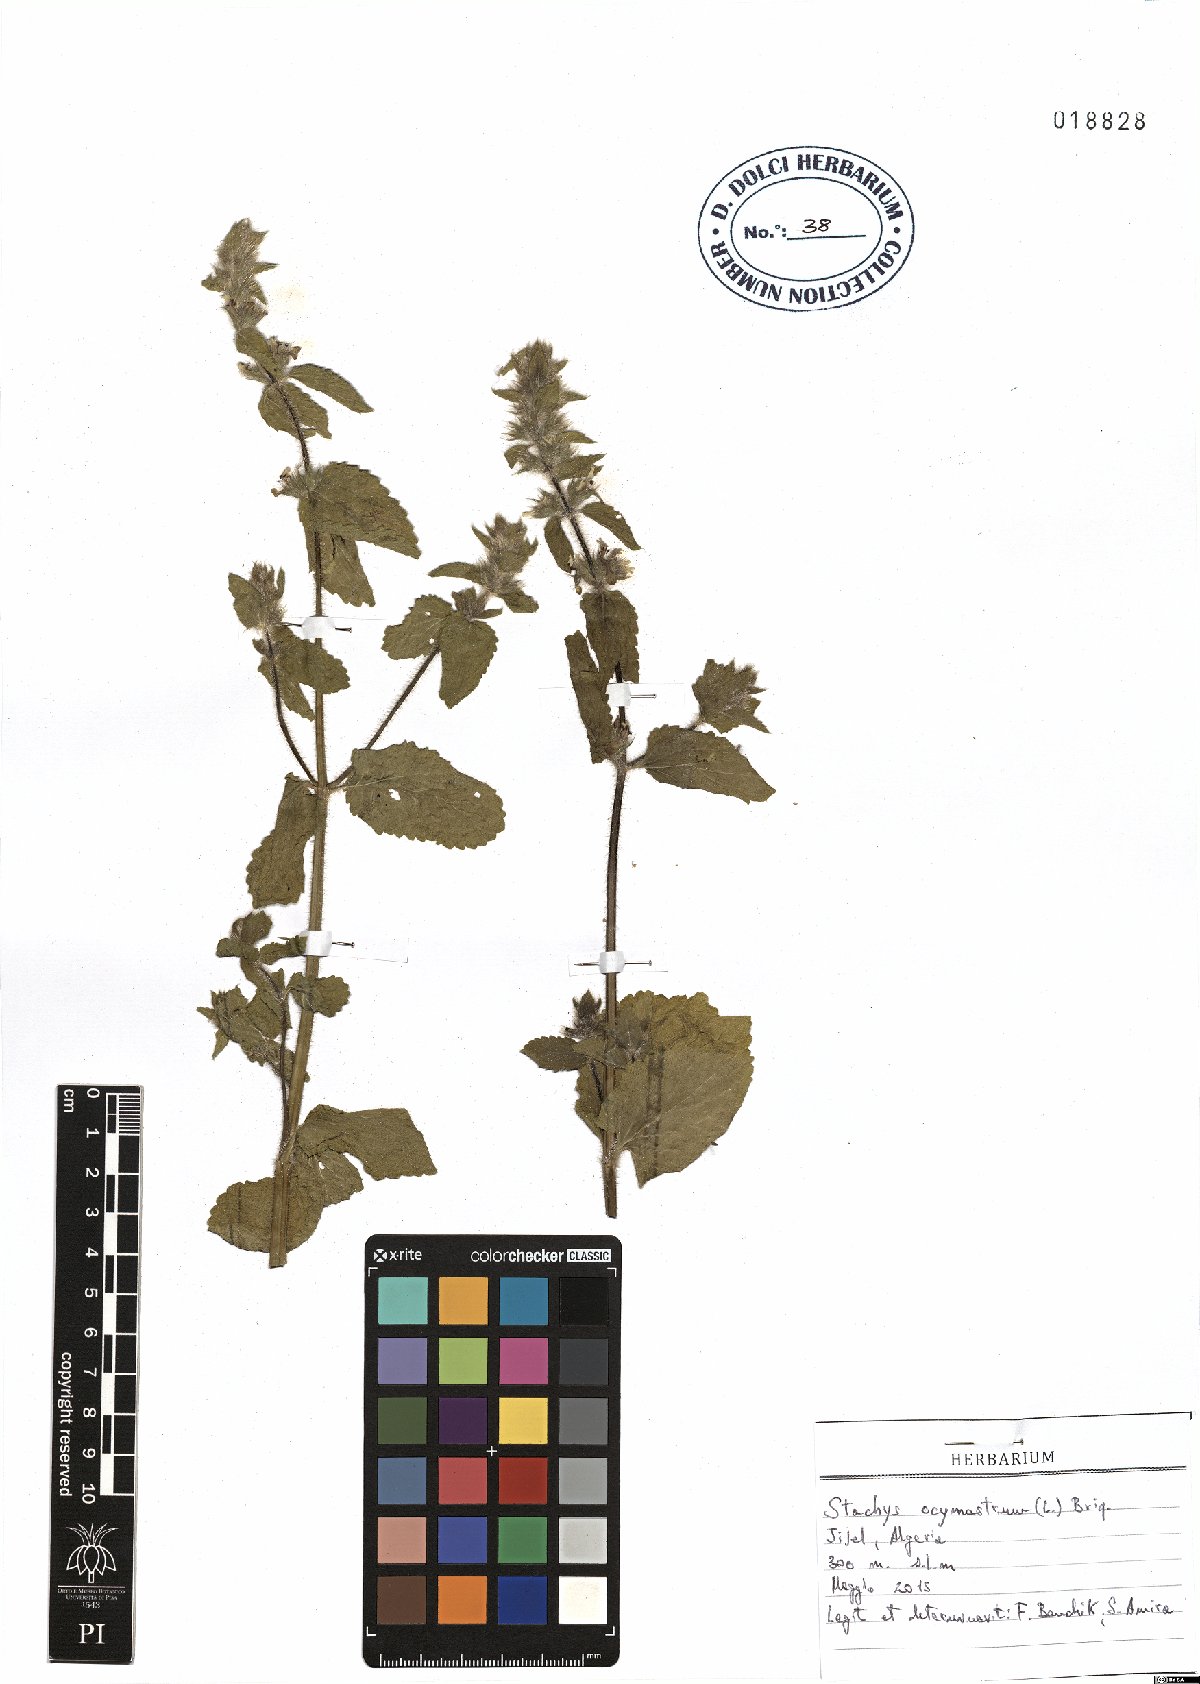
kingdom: Plantae
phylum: Tracheophyta
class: Magnoliopsida
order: Lamiales
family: Lamiaceae
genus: Stachys
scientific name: Stachys ocymastrum
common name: Italian hedgenettle
